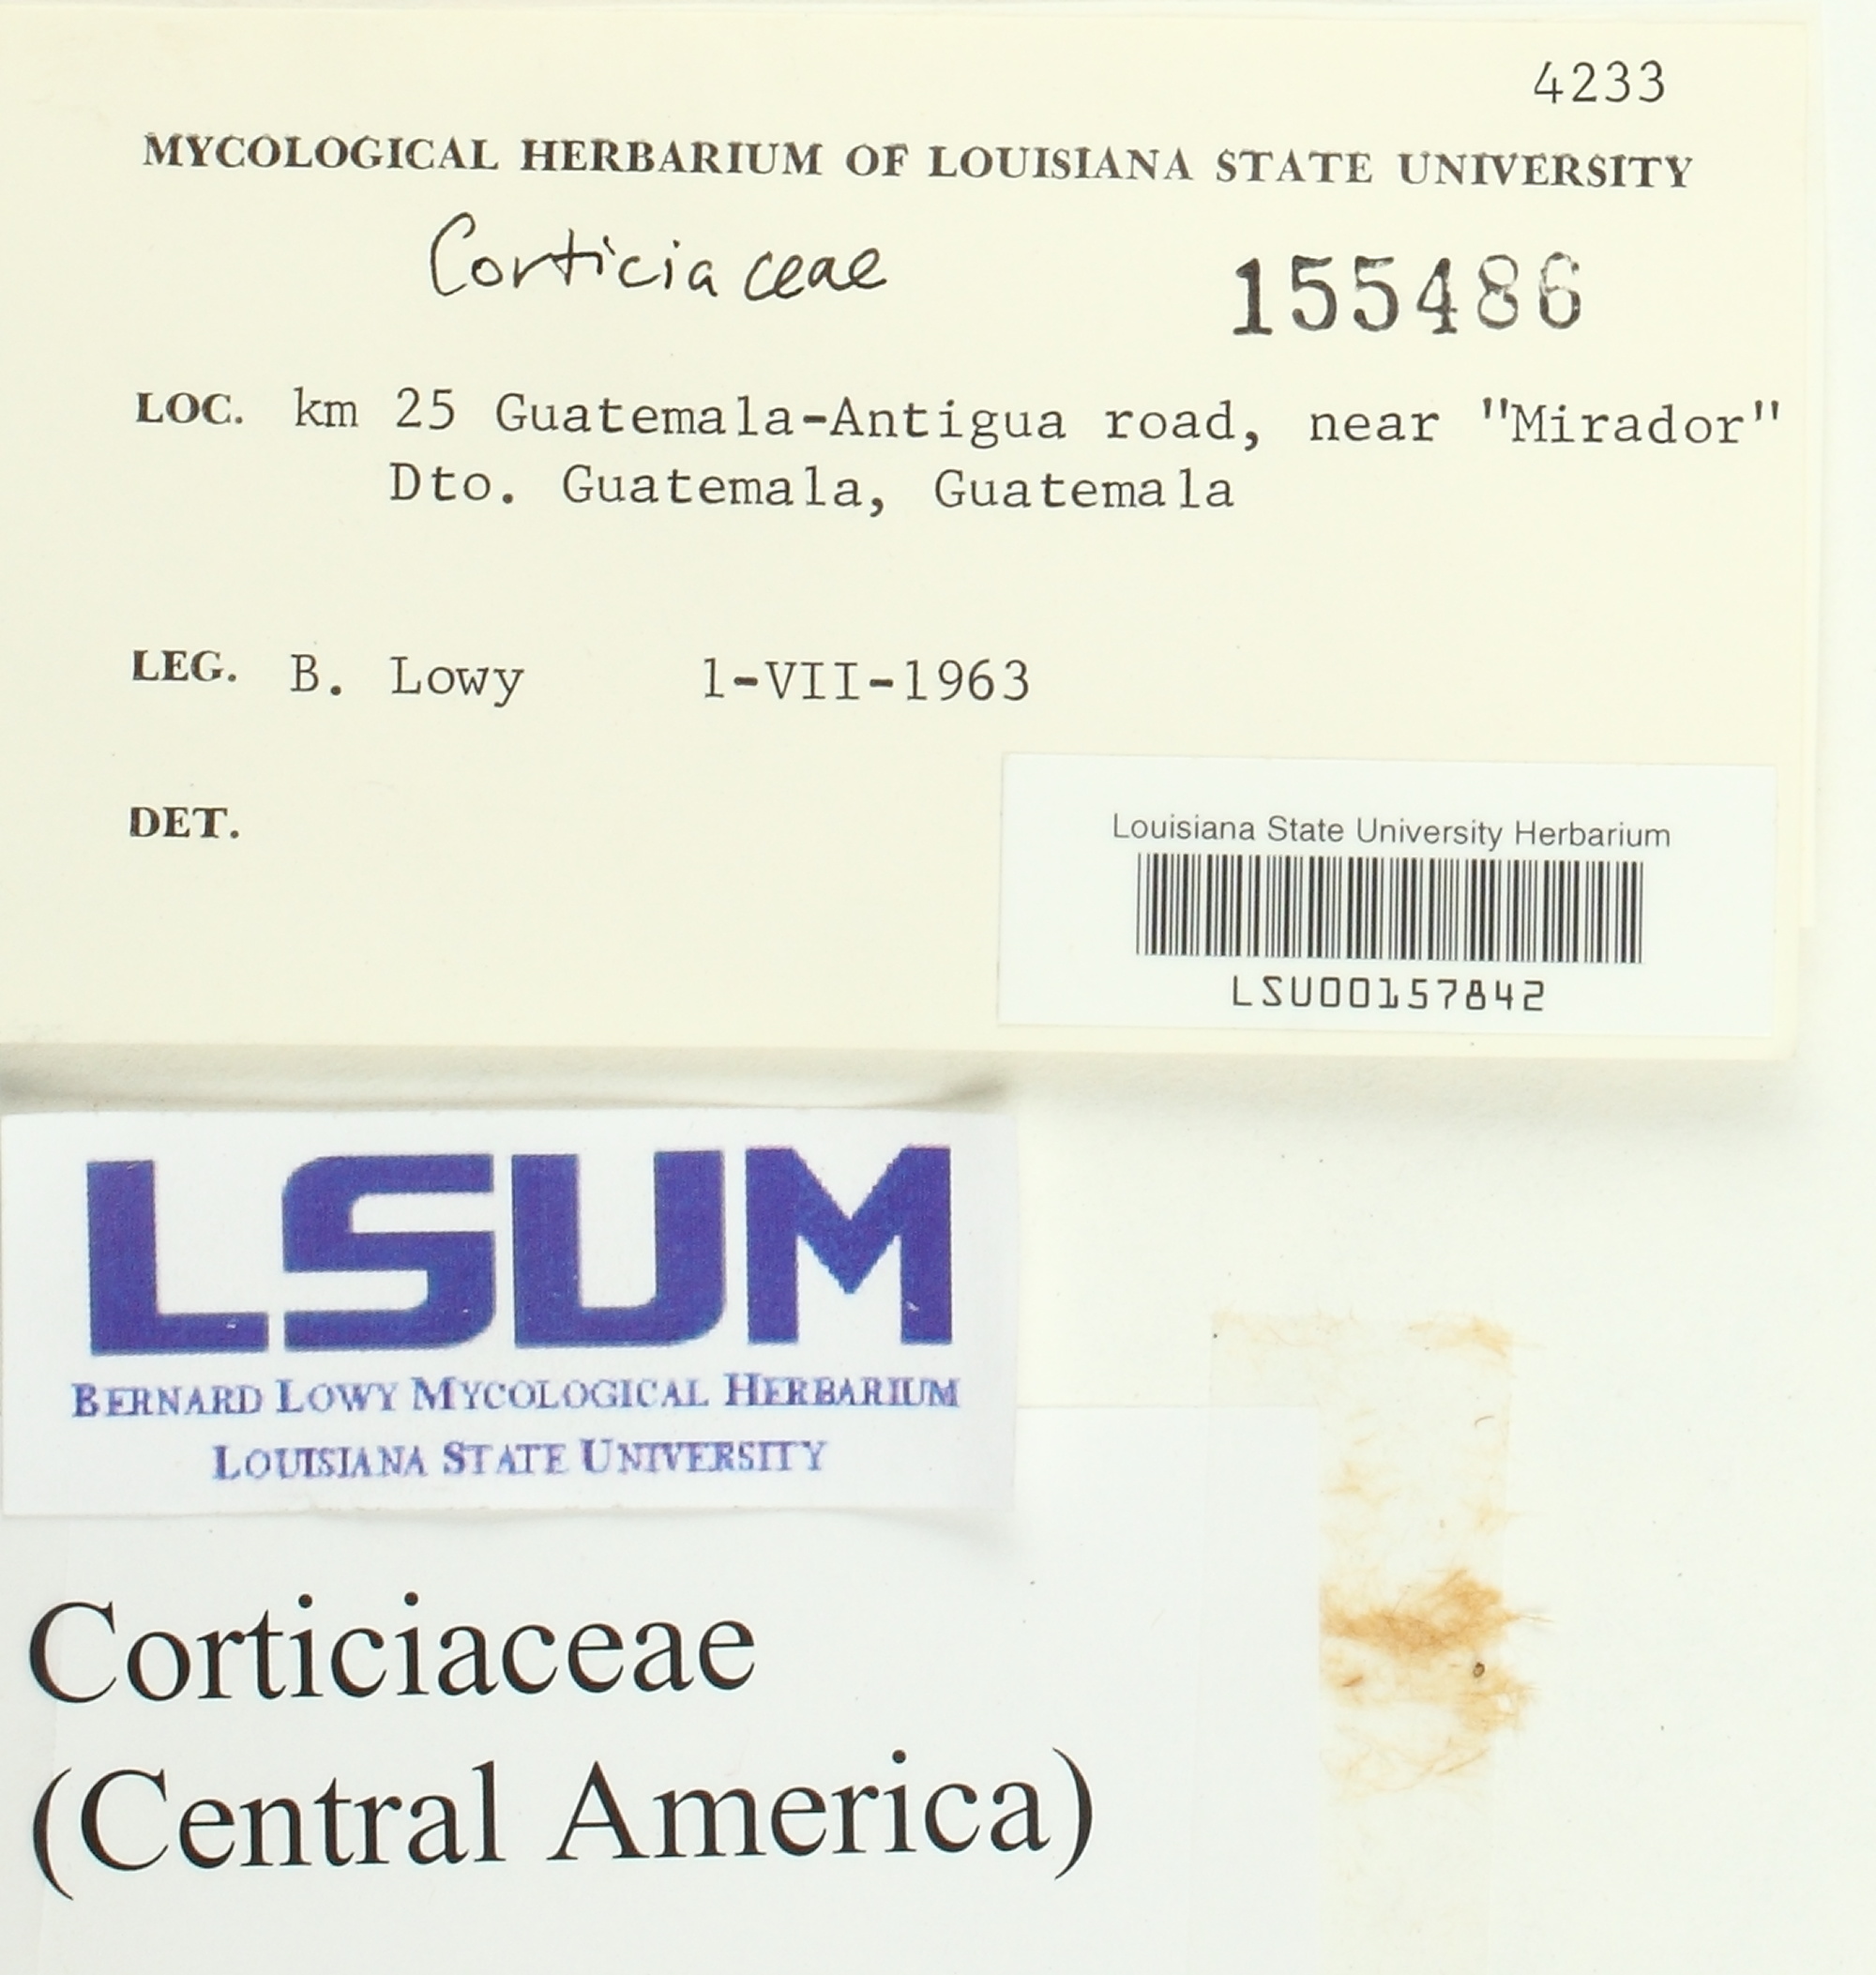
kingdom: Fungi
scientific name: Fungi
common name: Fungi
